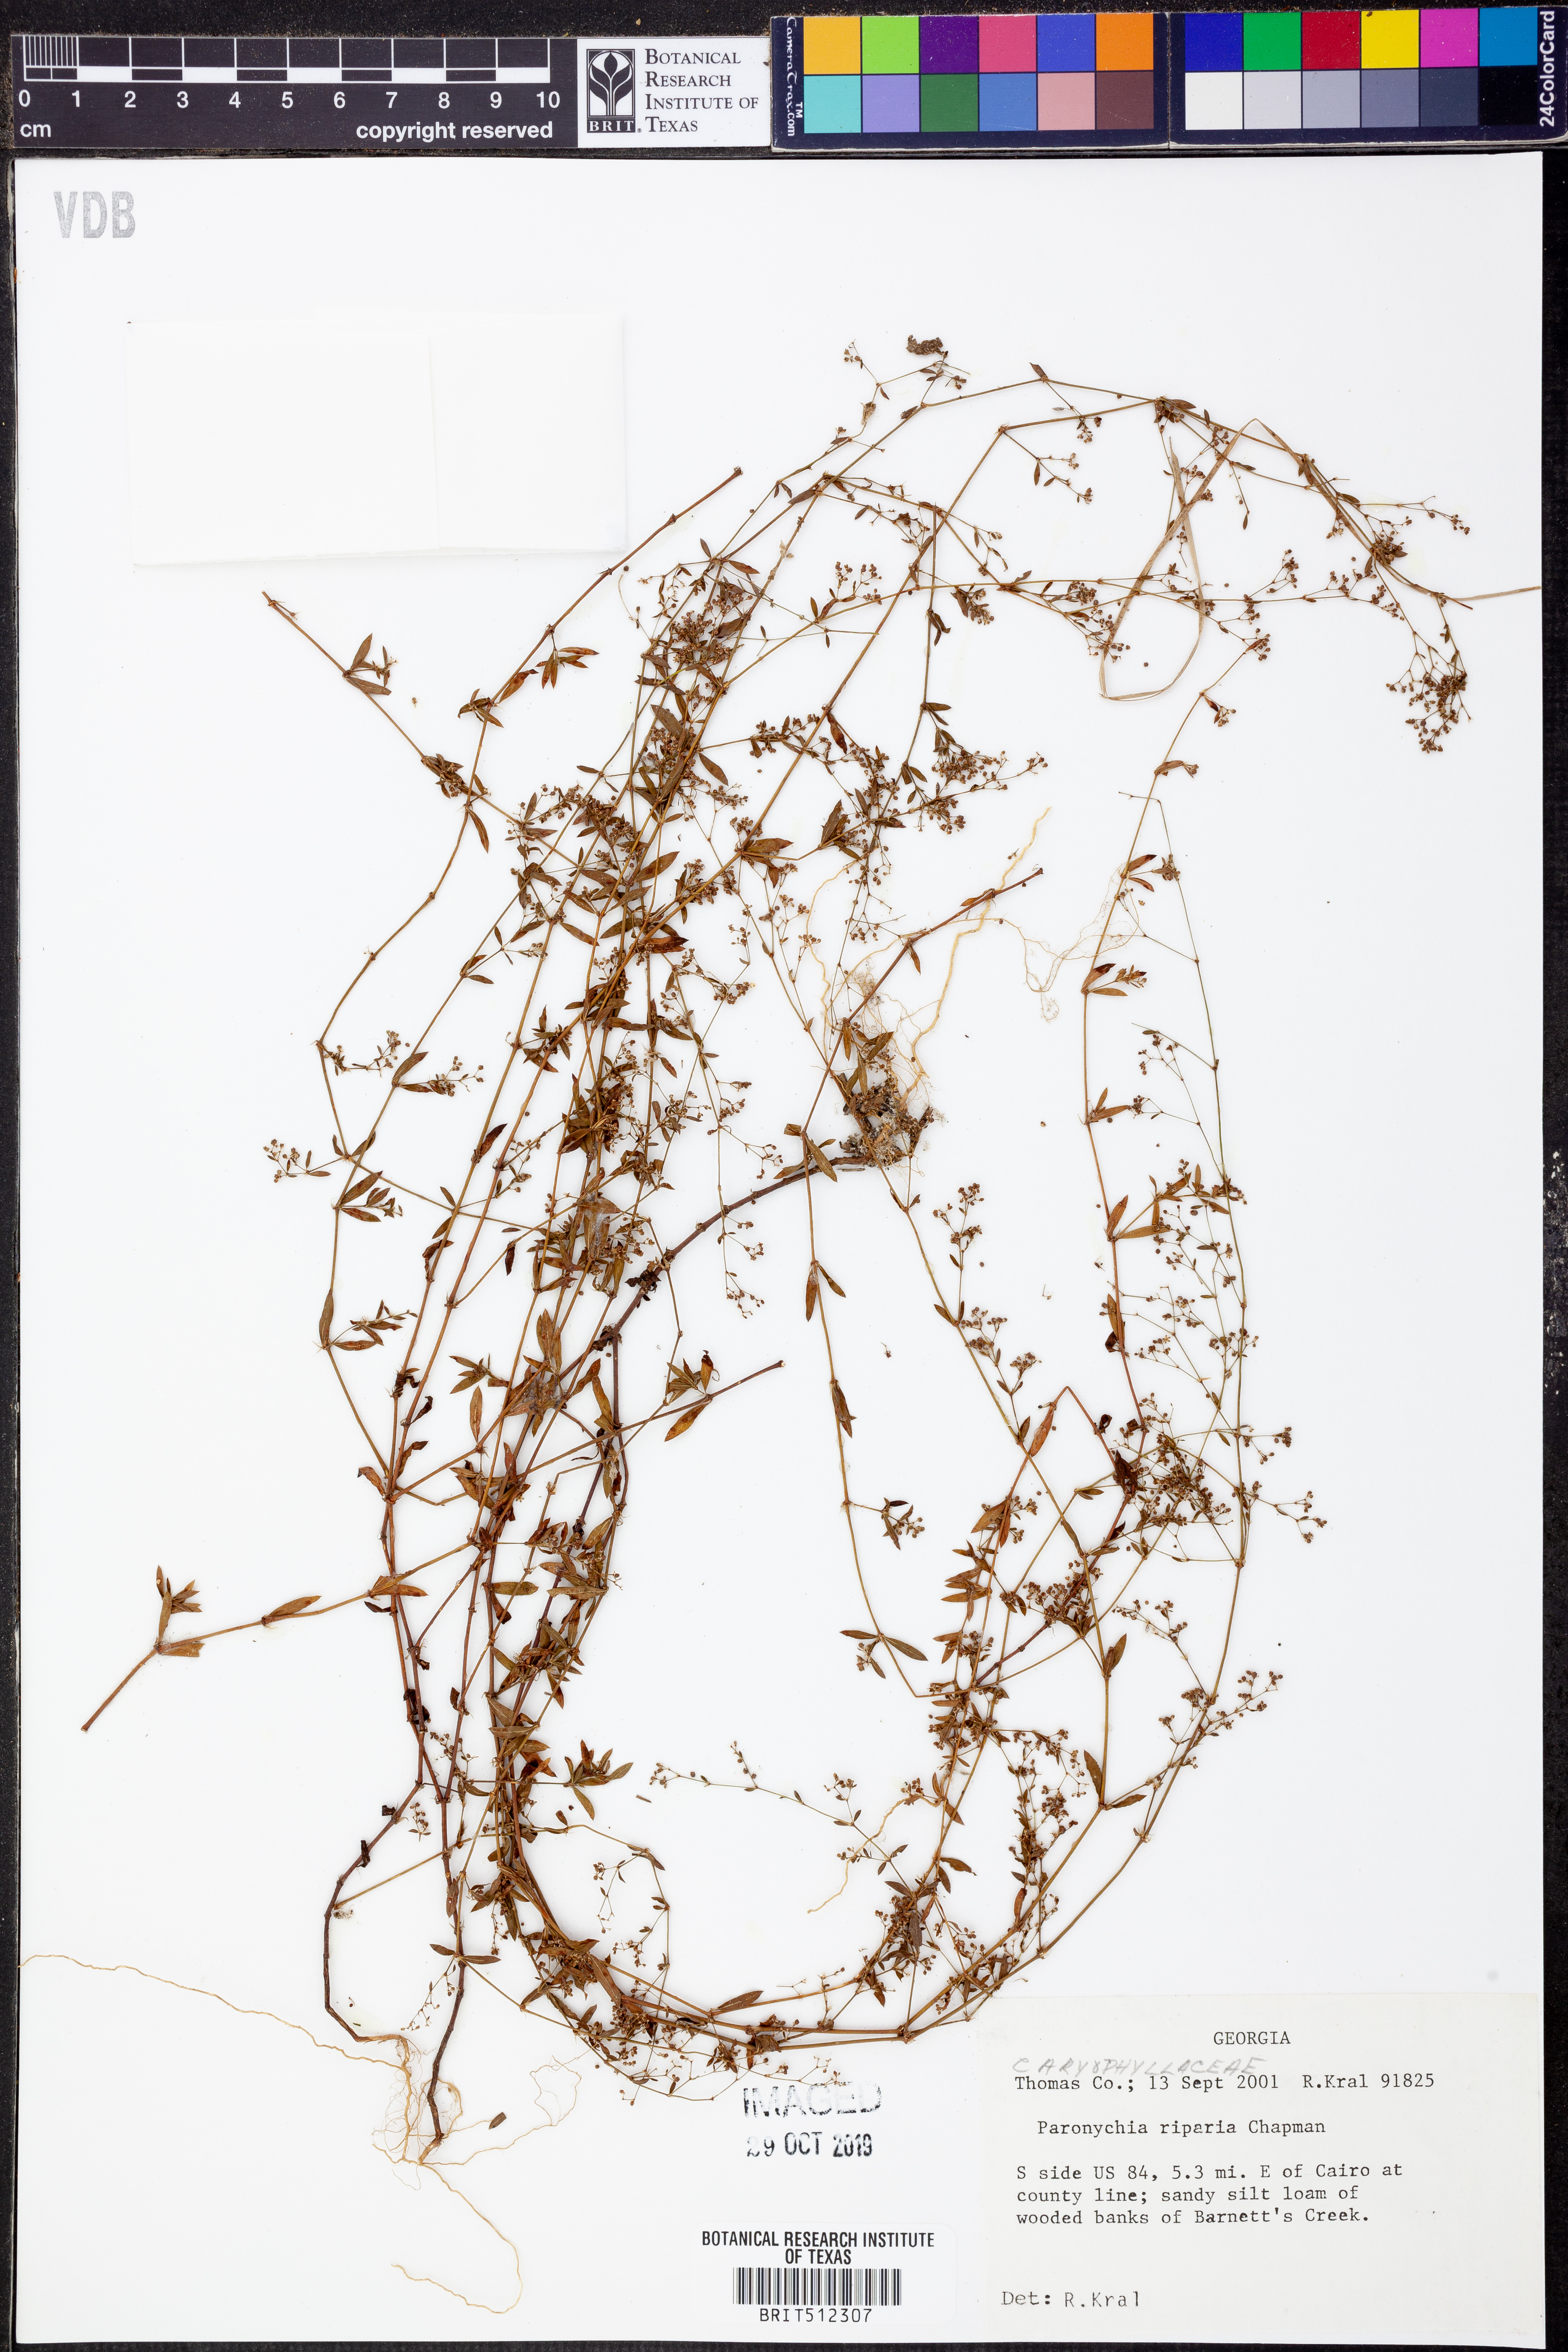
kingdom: Plantae
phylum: Tracheophyta
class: Magnoliopsida
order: Caryophyllales
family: Caryophyllaceae
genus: Paronychia
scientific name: Paronychia baldwinii
